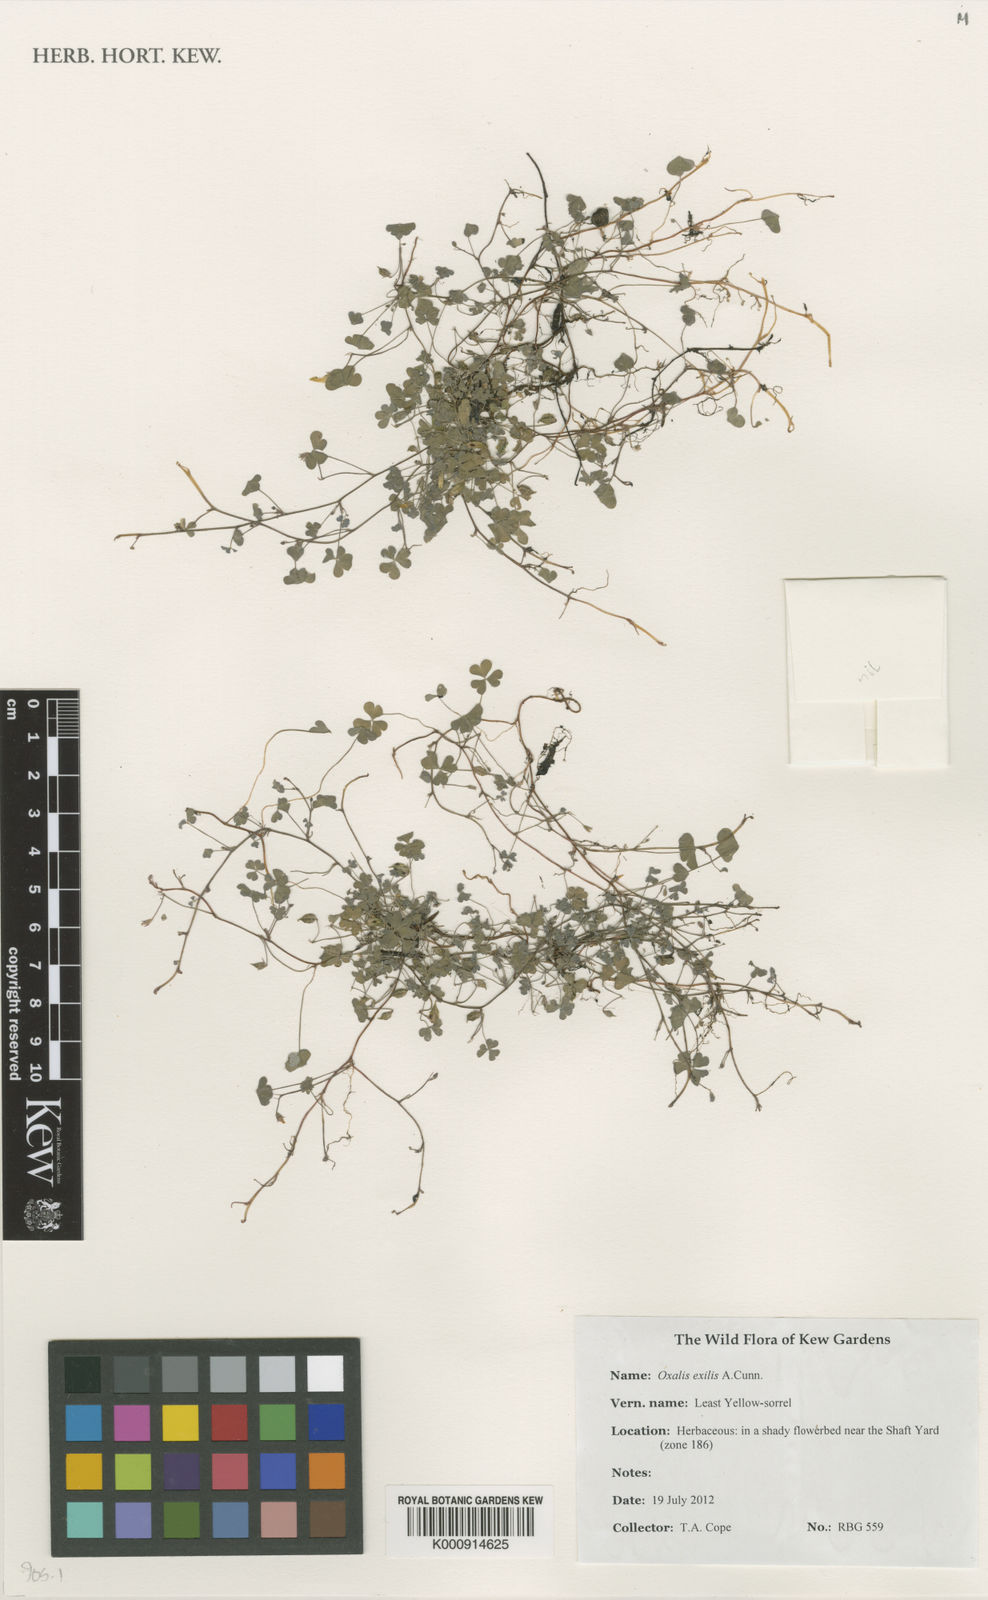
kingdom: Plantae
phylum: Tracheophyta
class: Magnoliopsida
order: Oxalidales
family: Oxalidaceae
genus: Oxalis
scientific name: Oxalis exilis
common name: Least yellow-sorrel
